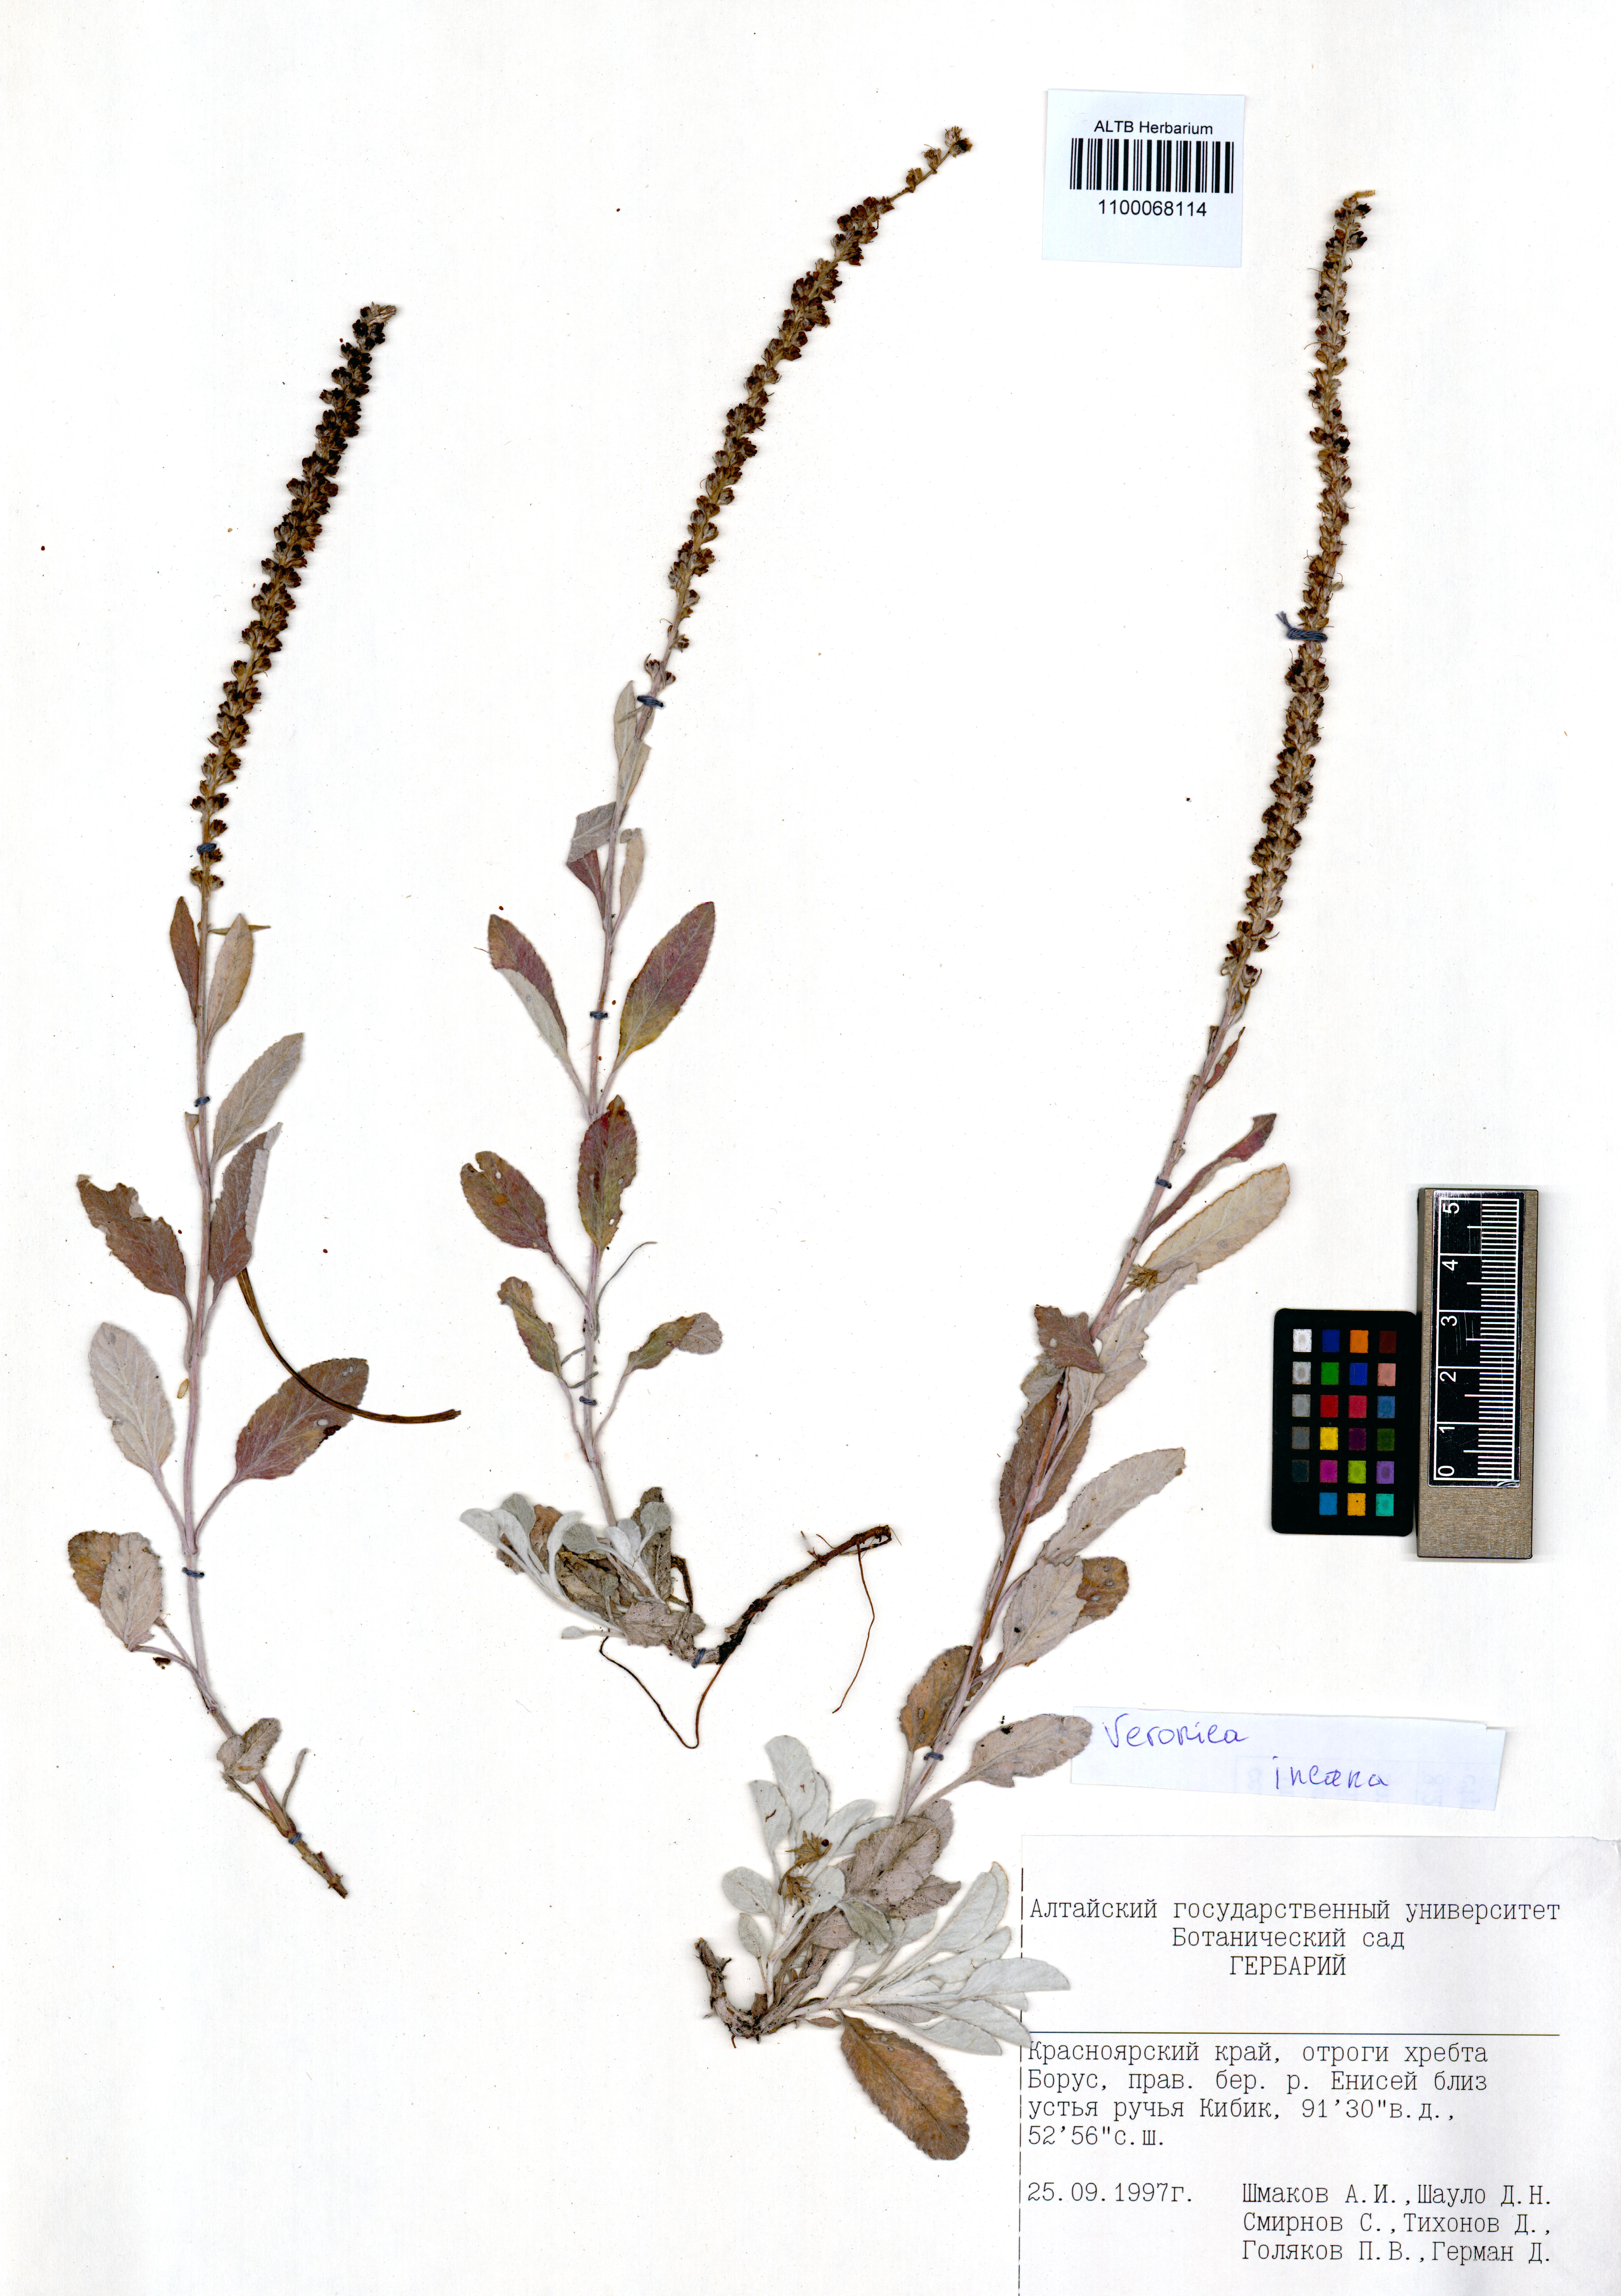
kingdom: Plantae
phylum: Tracheophyta
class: Magnoliopsida
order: Lamiales
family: Plantaginaceae
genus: Veronica
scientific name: Veronica incana
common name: Silver speedwell
